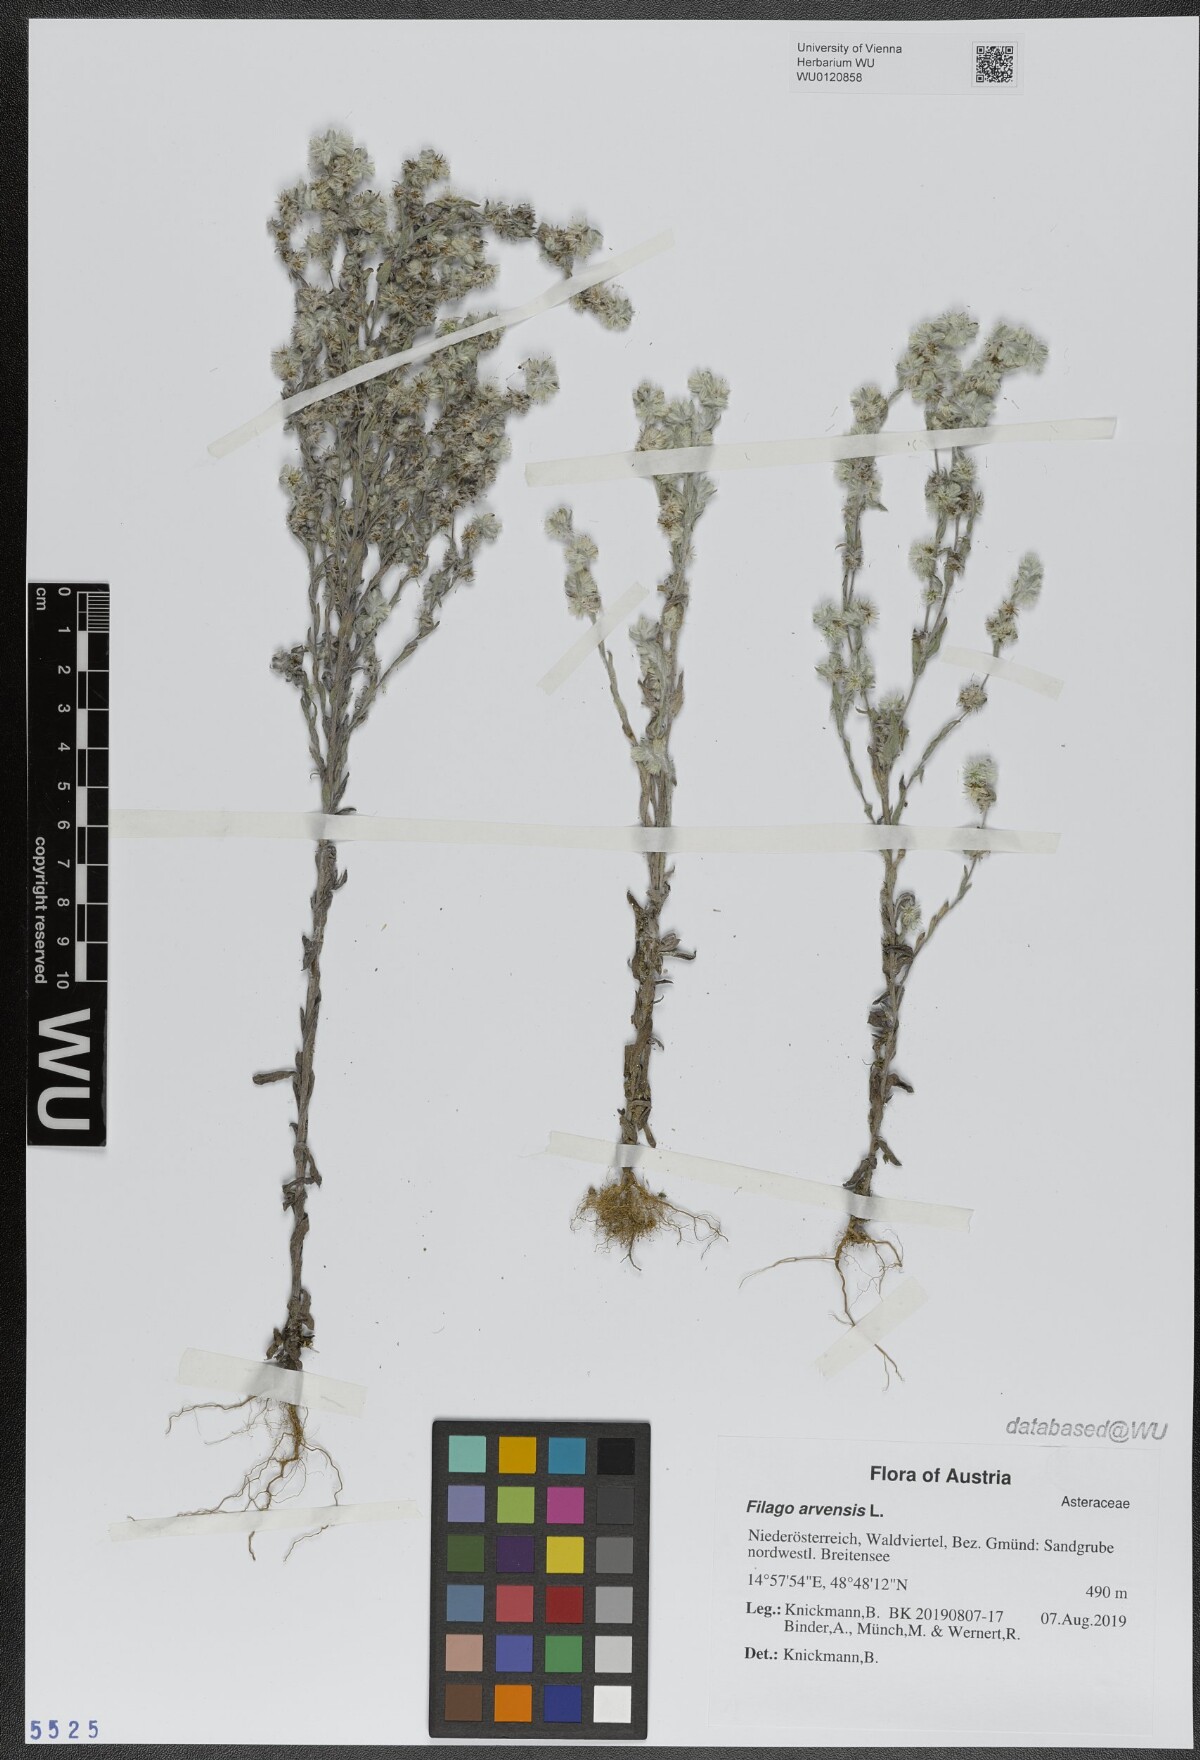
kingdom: Plantae
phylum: Tracheophyta
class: Magnoliopsida
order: Asterales
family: Asteraceae
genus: Filago
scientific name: Filago arvensis
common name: Field cudweed
